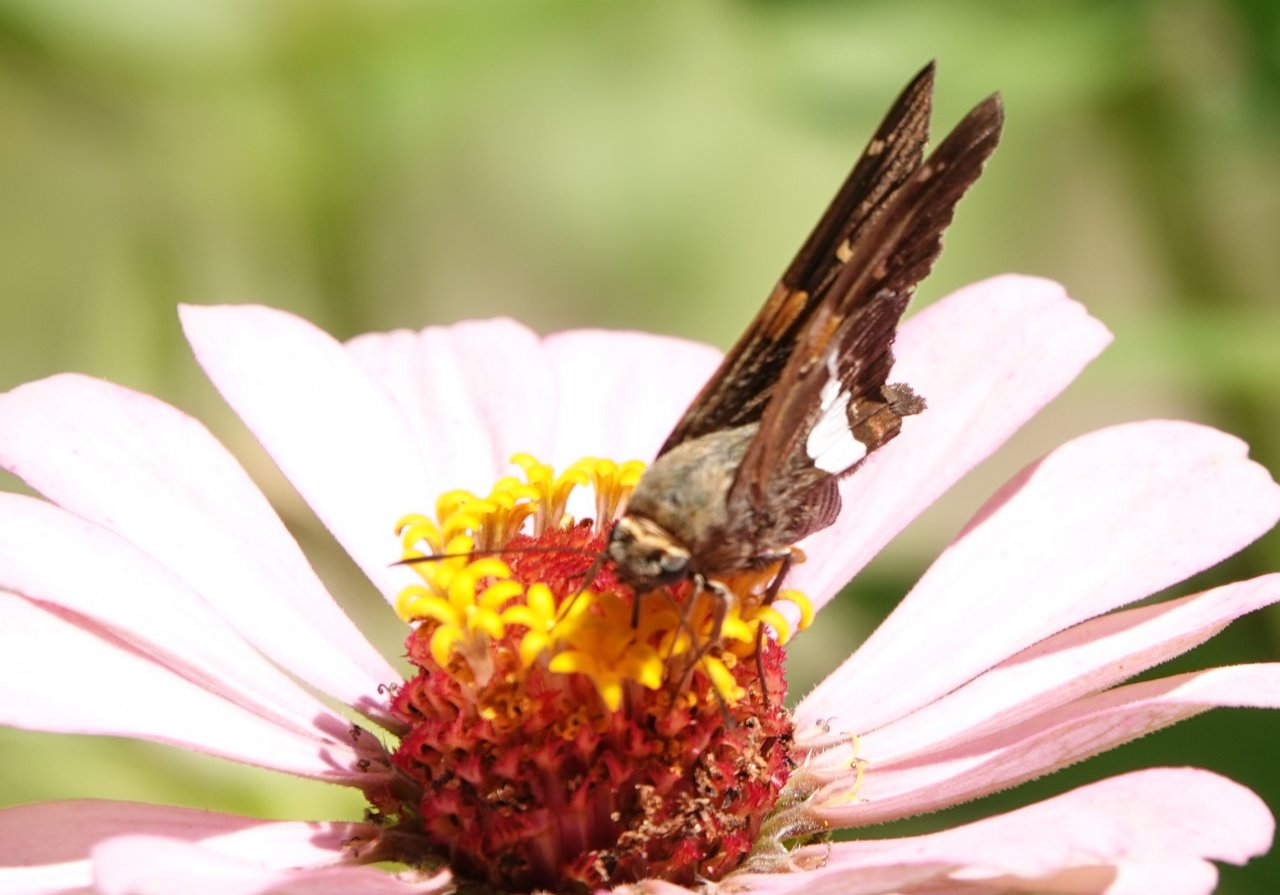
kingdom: Animalia
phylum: Arthropoda
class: Insecta
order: Lepidoptera
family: Hesperiidae
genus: Epargyreus
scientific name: Epargyreus clarus
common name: Silver-spotted Skipper
